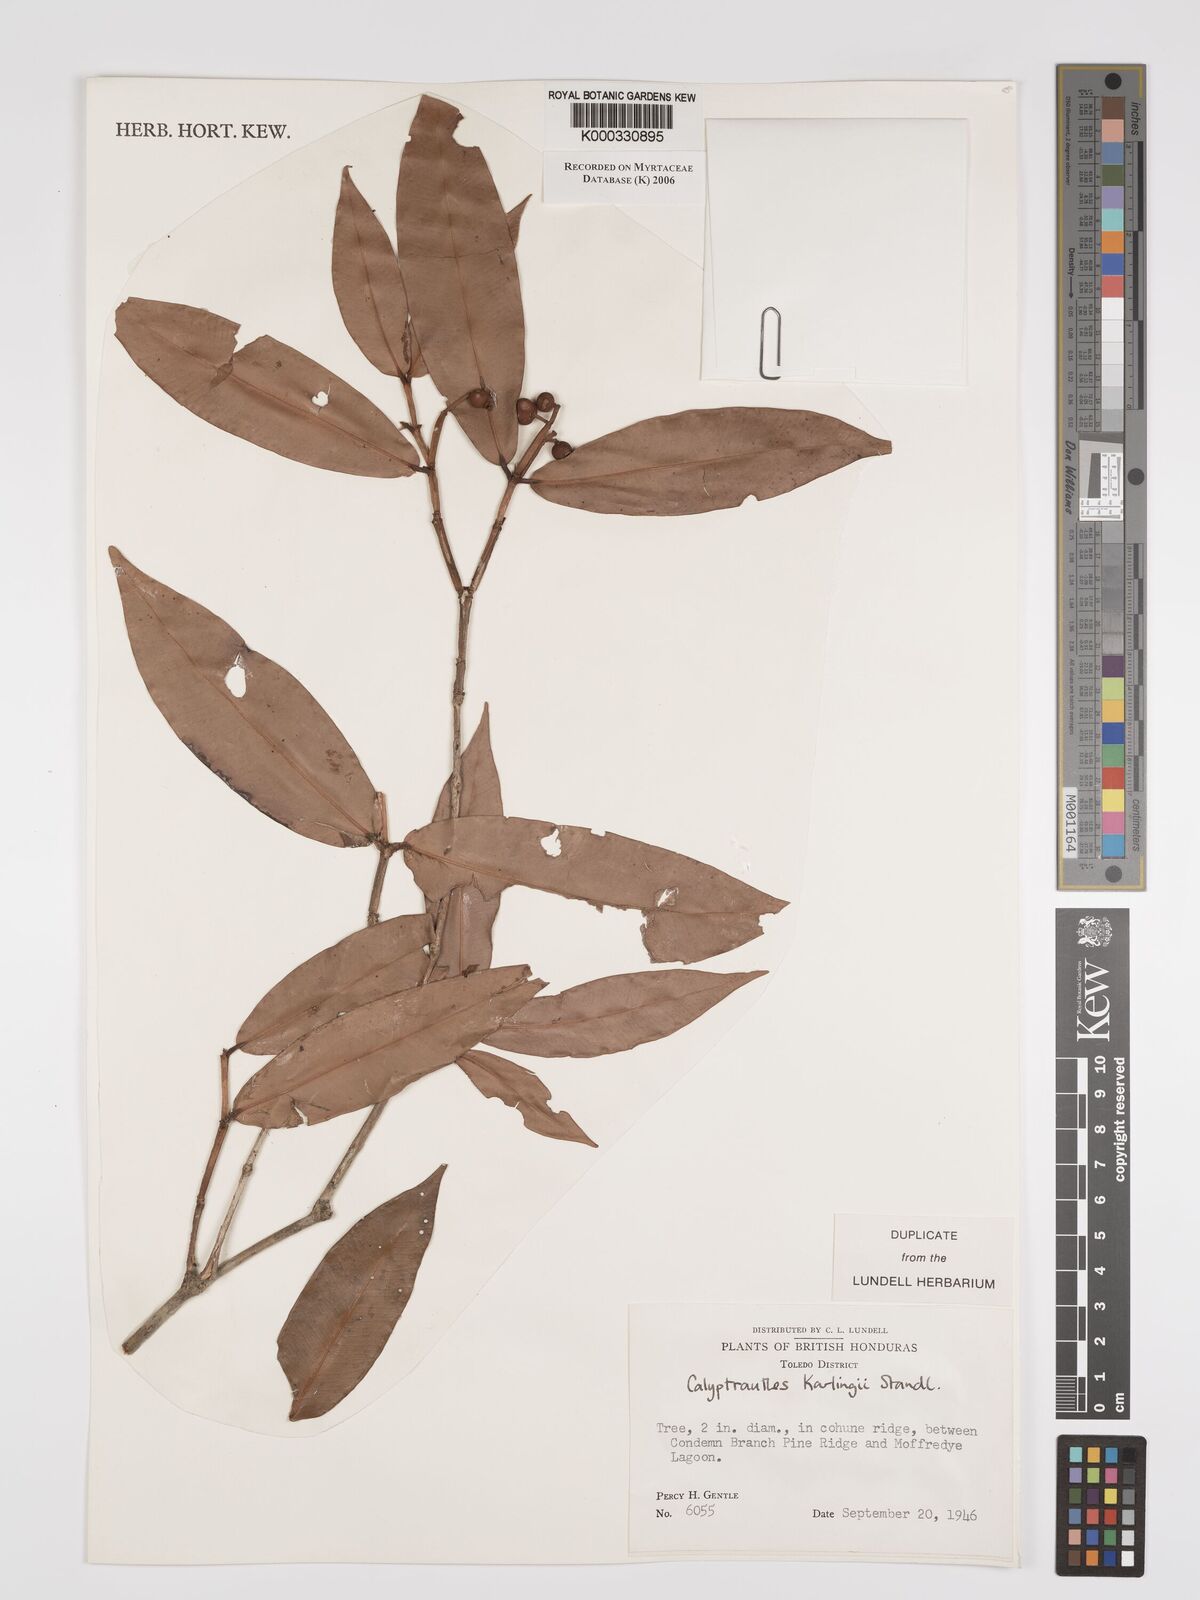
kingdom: Plantae
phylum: Tracheophyta
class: Magnoliopsida
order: Myrtales
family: Myrtaceae
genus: Myrcia
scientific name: Myrcia karlingii
